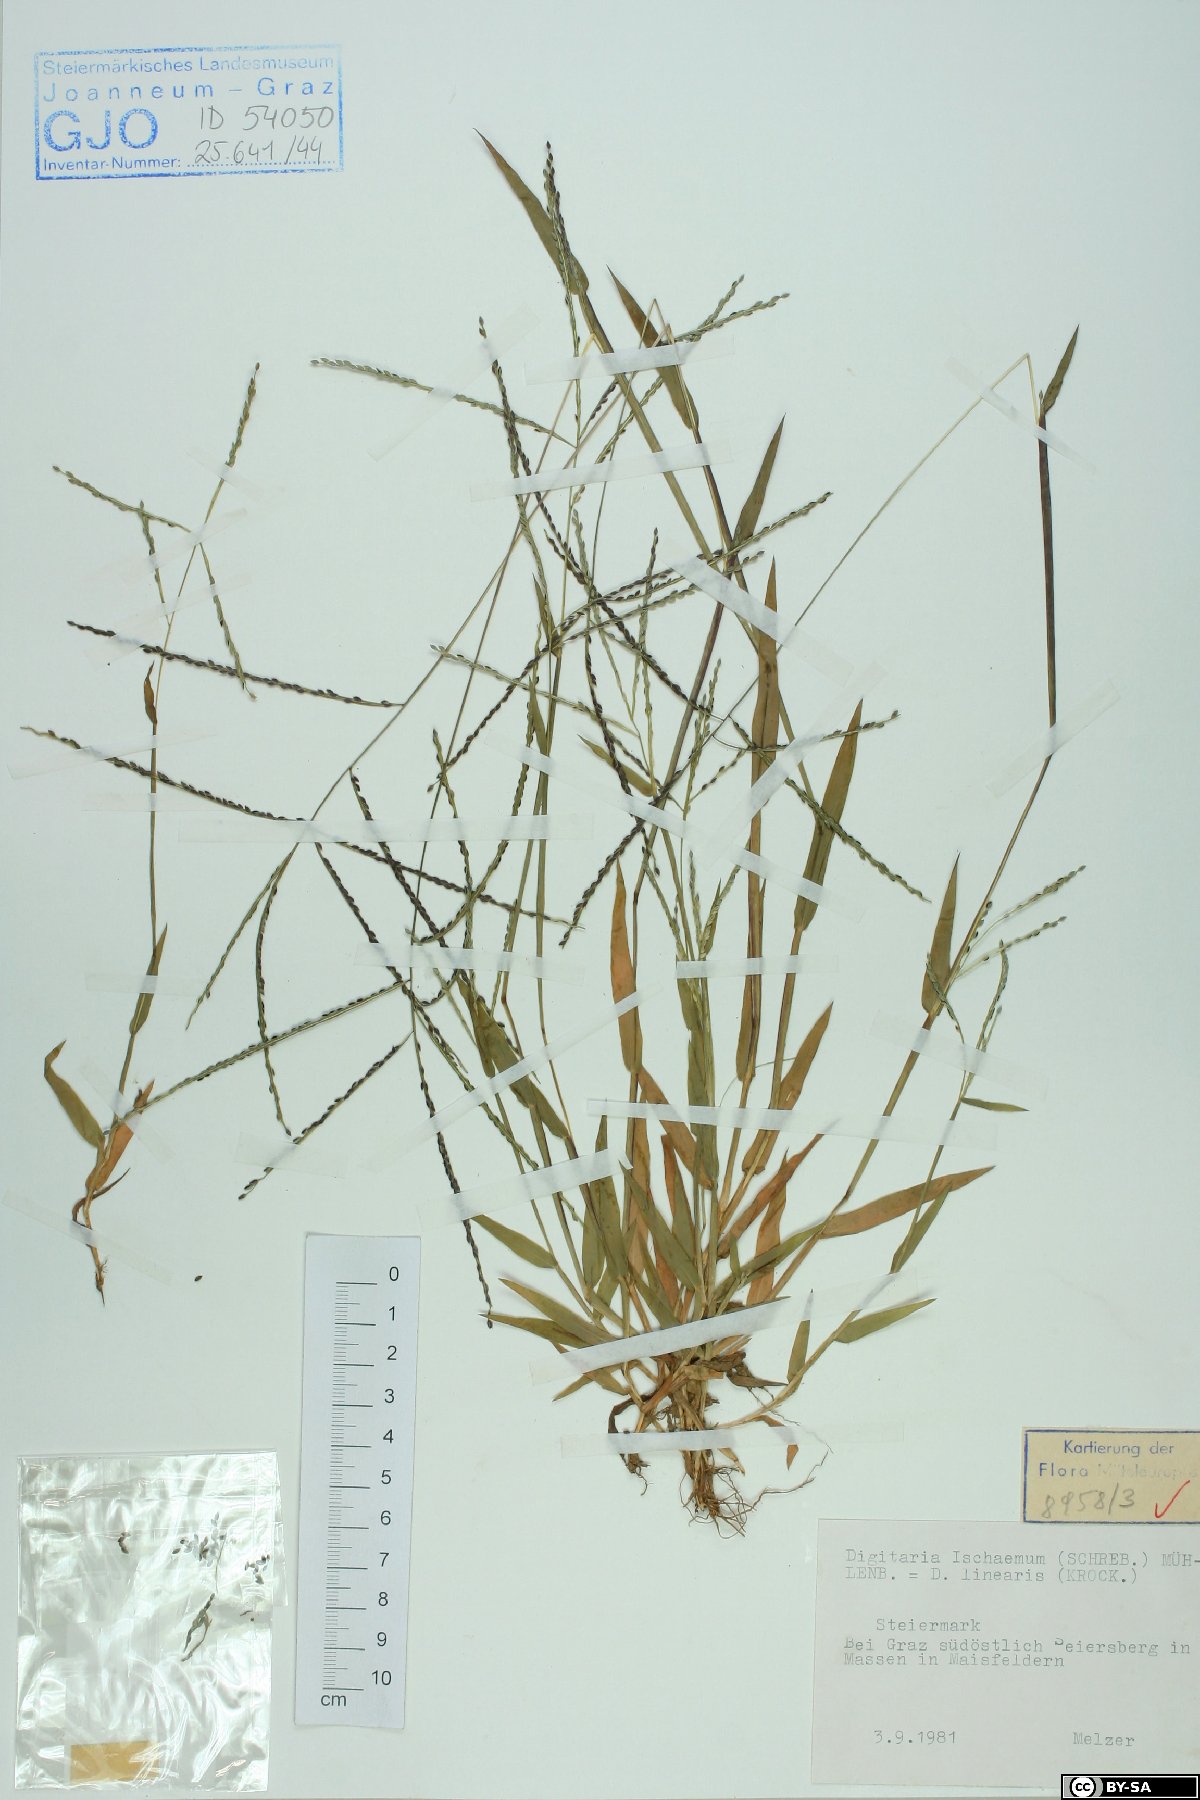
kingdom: Plantae
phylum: Tracheophyta
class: Liliopsida
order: Poales
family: Poaceae
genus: Digitaria
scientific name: Digitaria ischaemum
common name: Smooth crabgrass
